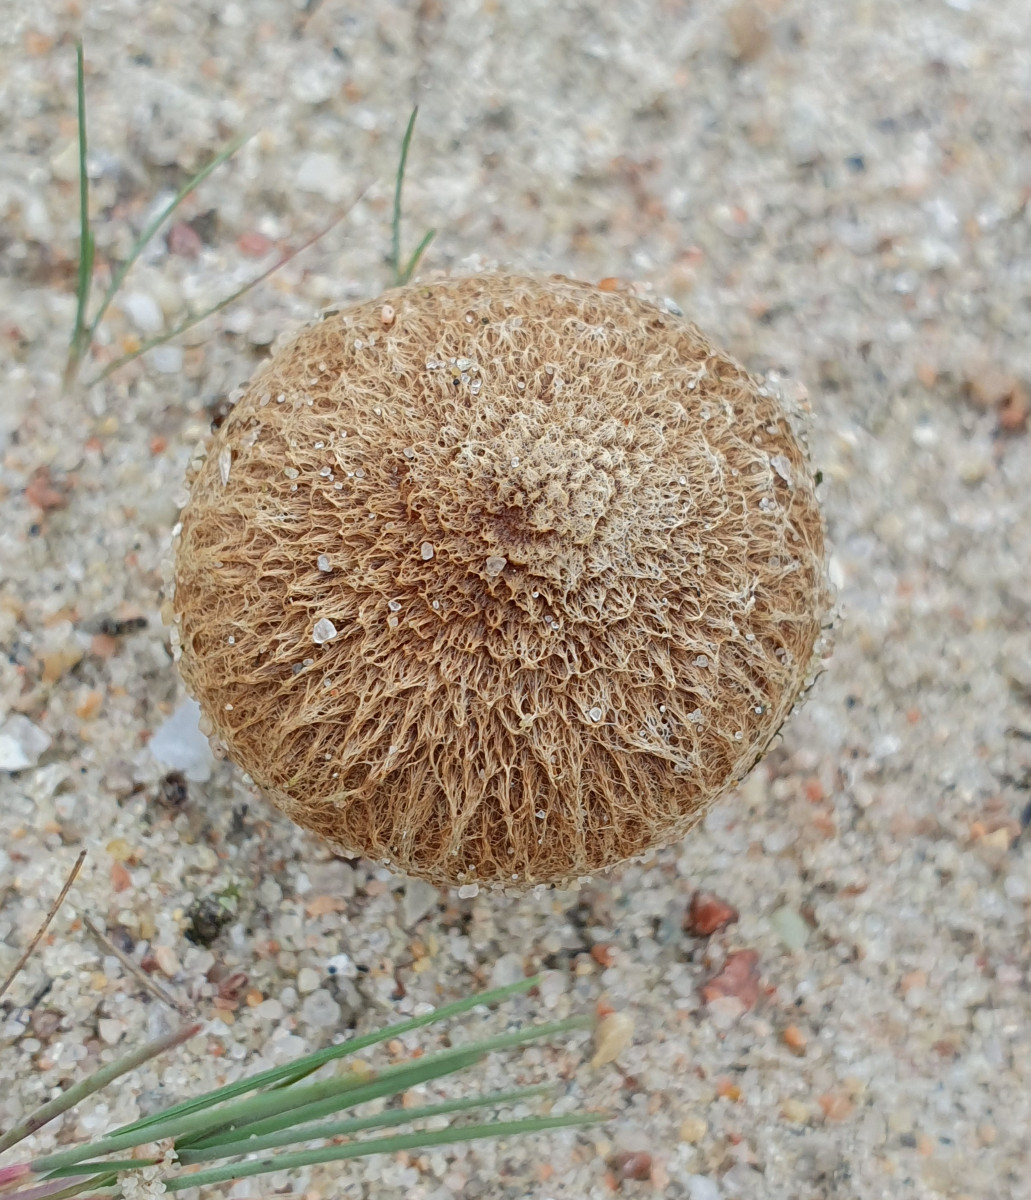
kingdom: Fungi
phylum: Basidiomycota
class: Agaricomycetes
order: Agaricales
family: Inocybaceae
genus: Inocybe
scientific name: Inocybe
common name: trævlhat
